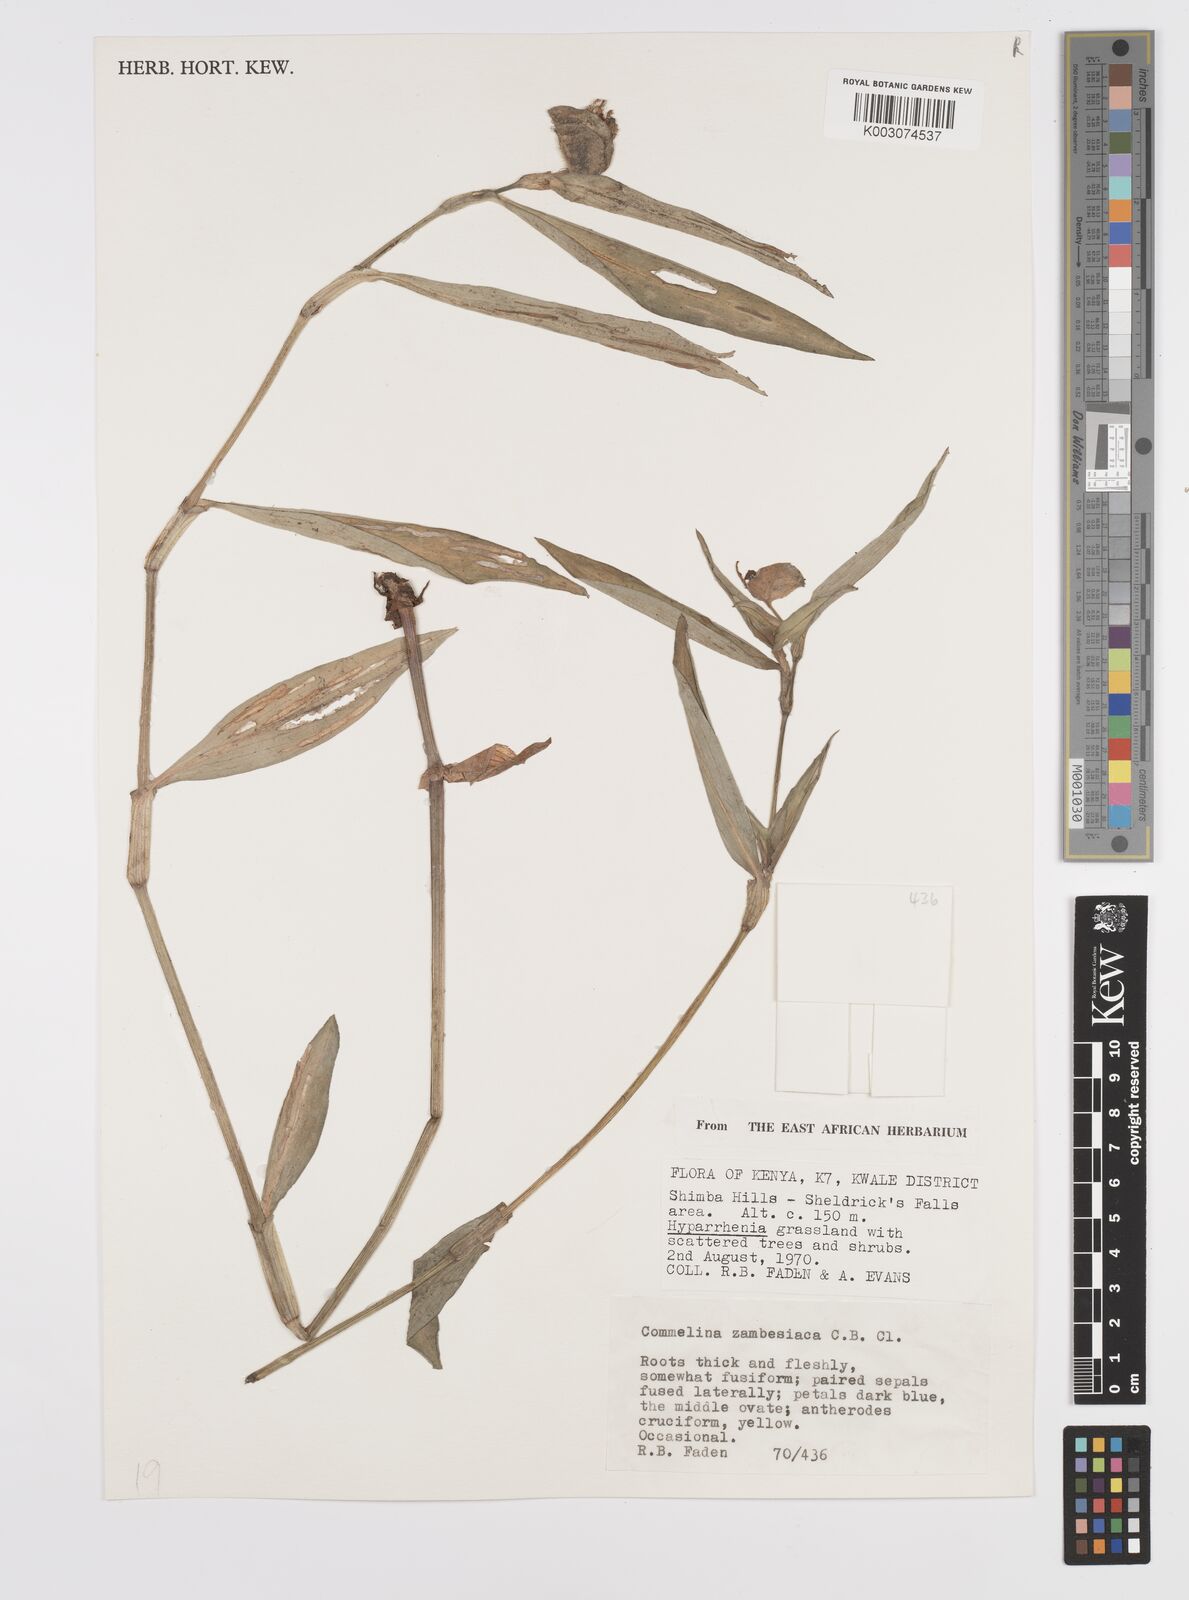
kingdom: Plantae
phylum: Tracheophyta
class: Liliopsida
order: Commelinales
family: Commelinaceae
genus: Commelina
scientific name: Commelina zambesica
